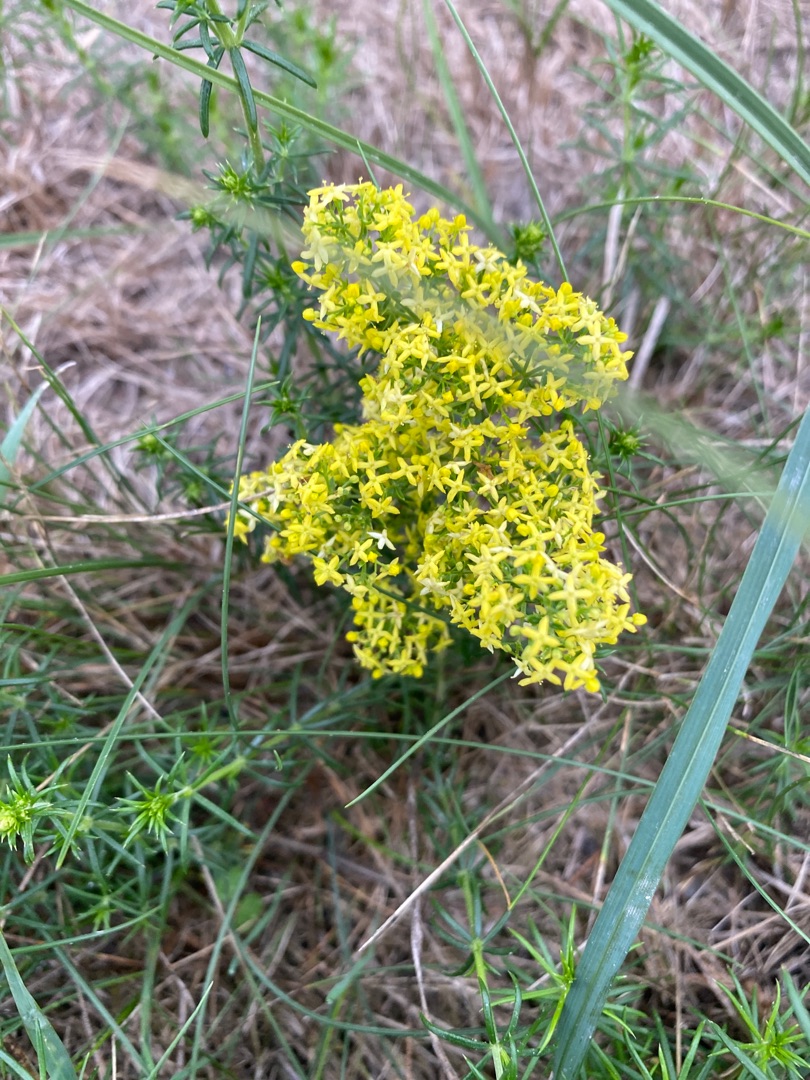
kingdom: Plantae
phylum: Tracheophyta
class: Magnoliopsida
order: Gentianales
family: Rubiaceae
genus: Galium
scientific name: Galium verum
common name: Gul snerre
